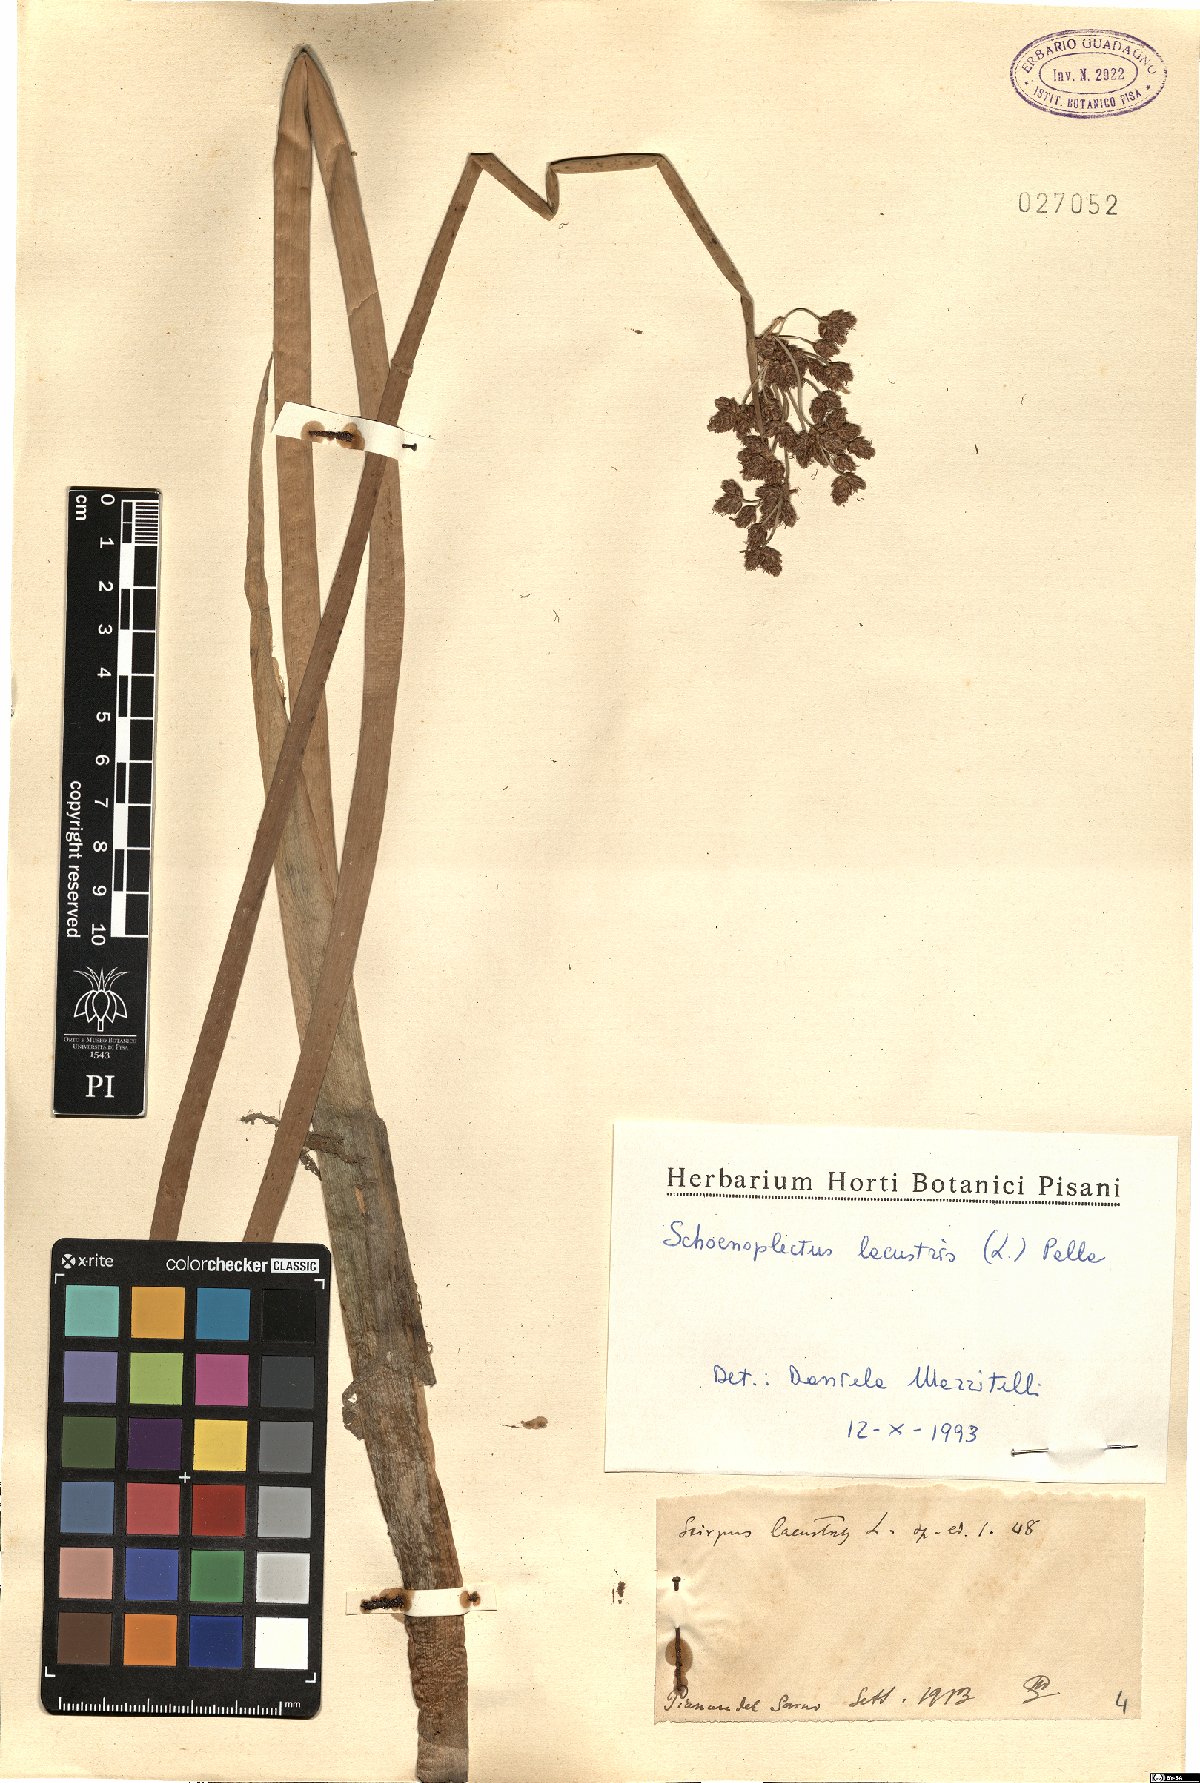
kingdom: Plantae
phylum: Tracheophyta
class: Liliopsida
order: Poales
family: Cyperaceae
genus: Schoenoplectus
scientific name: Schoenoplectus lacustris
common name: Common club-rush
